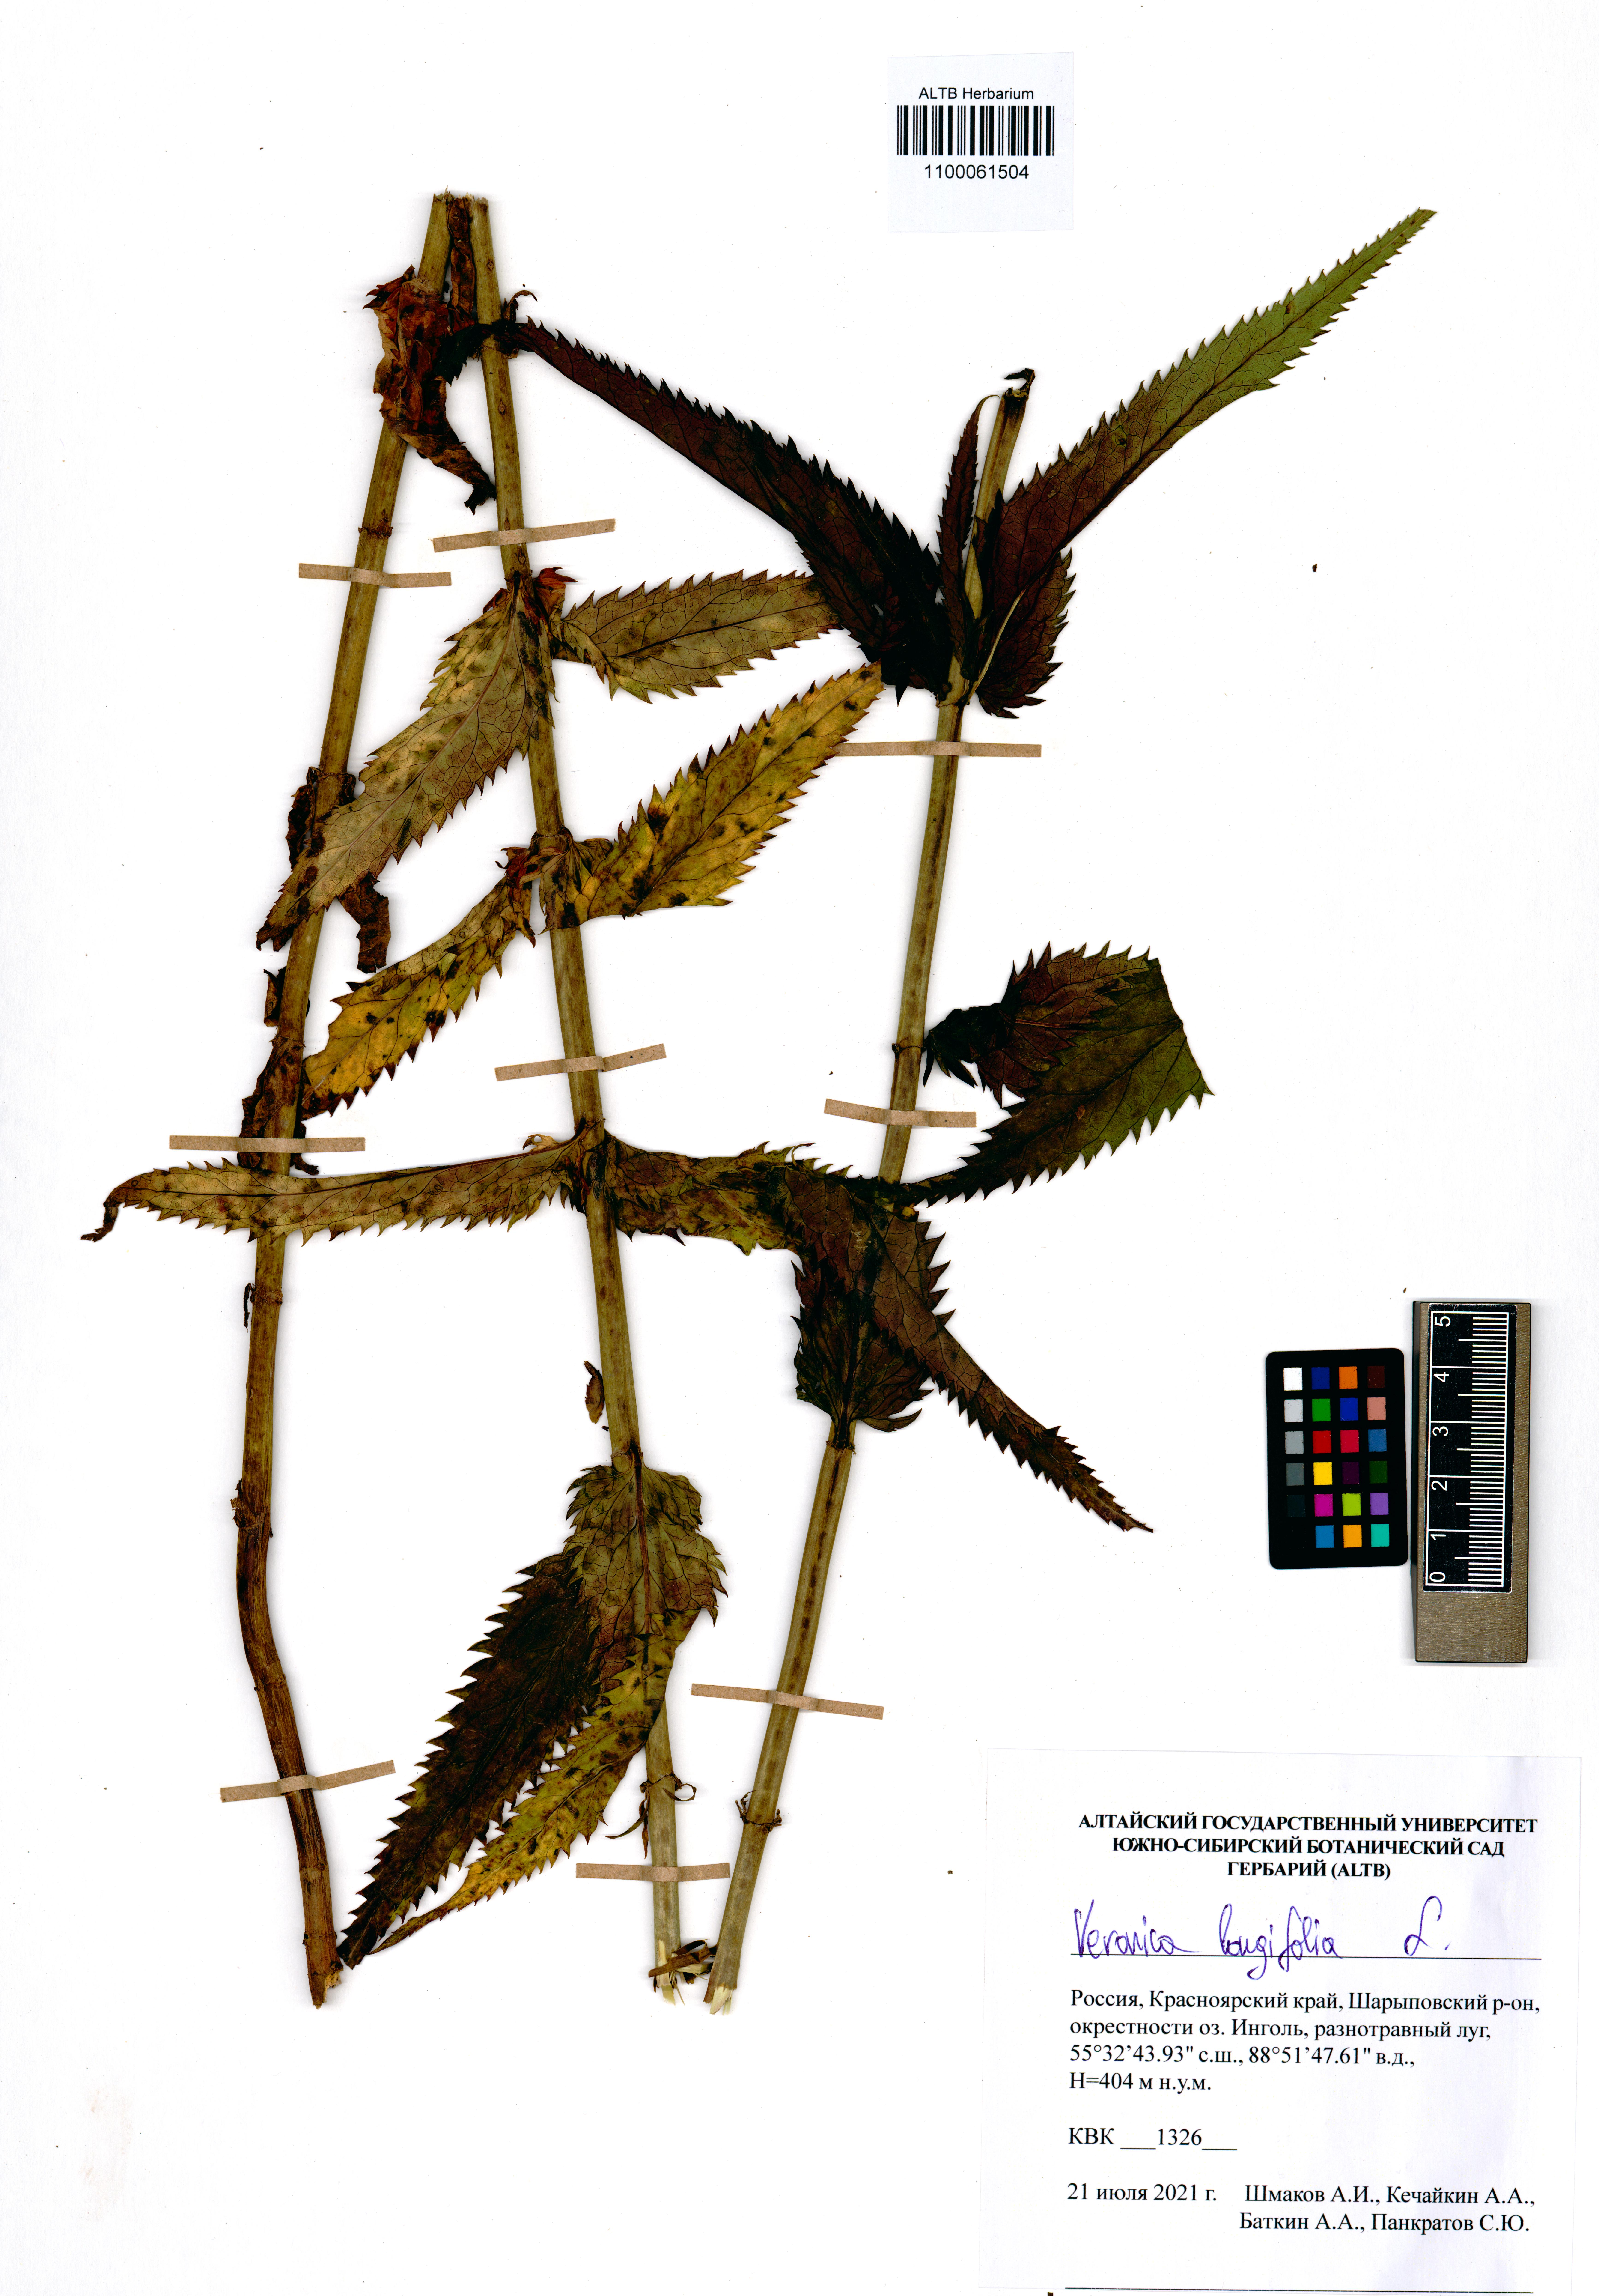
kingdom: Plantae
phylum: Tracheophyta
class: Magnoliopsida
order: Lamiales
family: Plantaginaceae
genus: Veronica
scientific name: Veronica longifolia
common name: Garden speedwell
